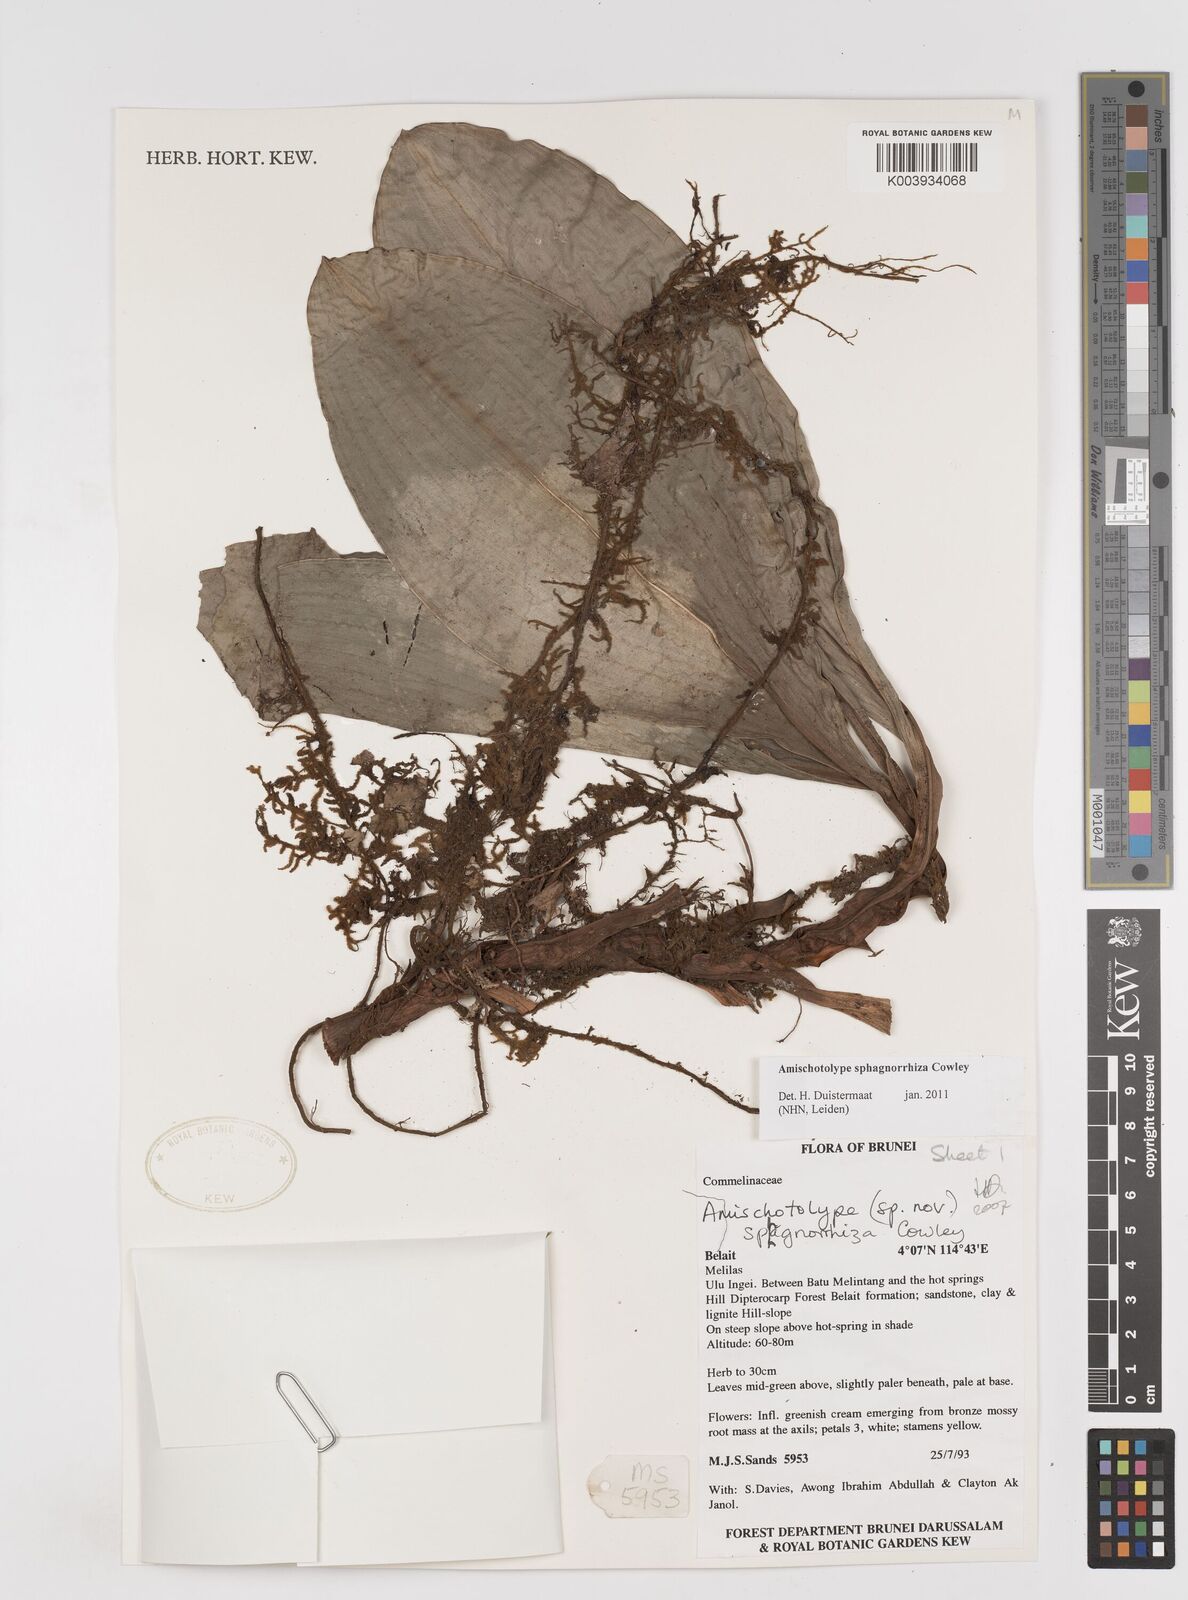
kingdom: Plantae
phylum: Tracheophyta
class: Liliopsida
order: Commelinales
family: Commelinaceae
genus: Amischotolype
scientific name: Amischotolype sphagnorrhiza
